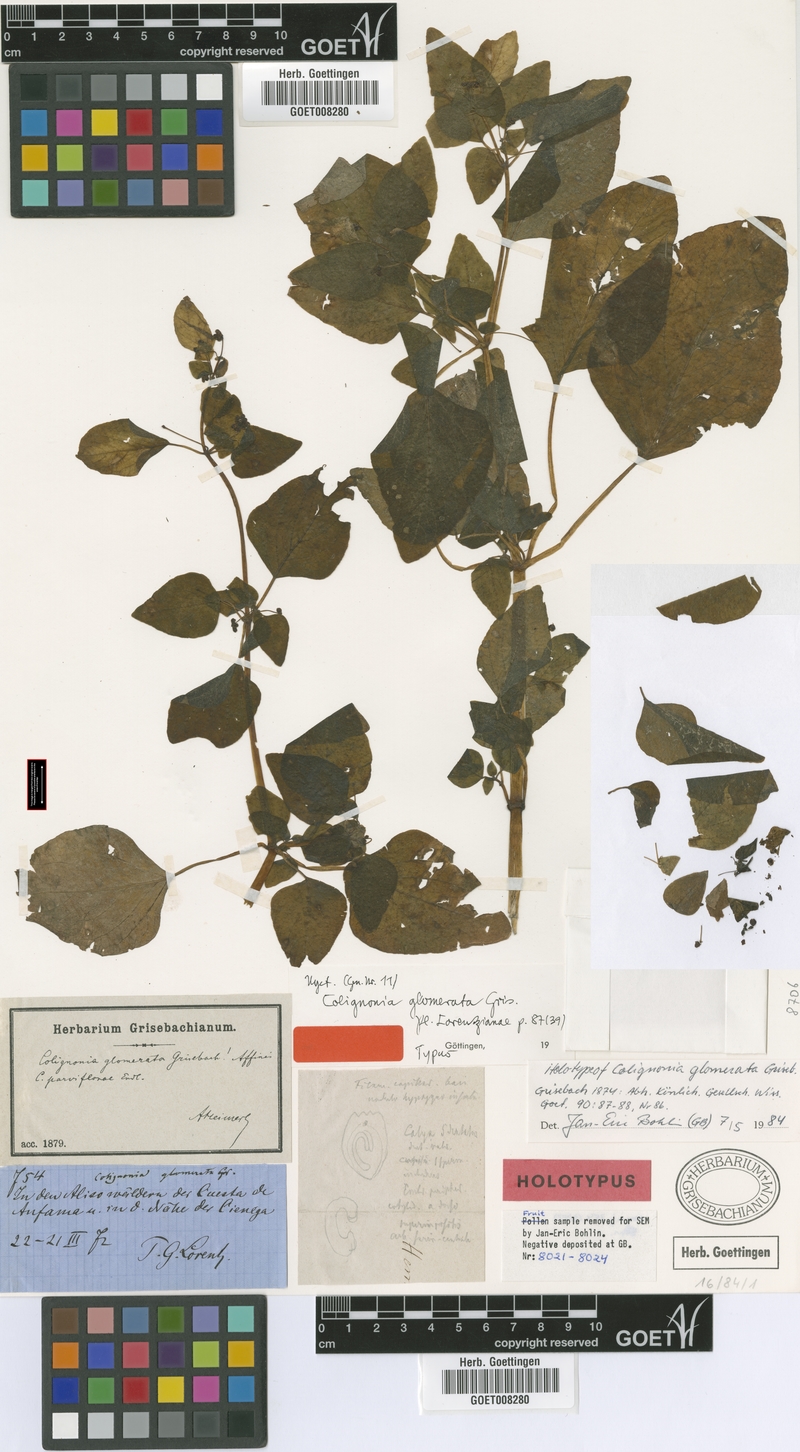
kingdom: Plantae
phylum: Tracheophyta
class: Magnoliopsida
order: Caryophyllales
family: Nyctaginaceae
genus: Colignonia
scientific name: Colignonia glomerata
